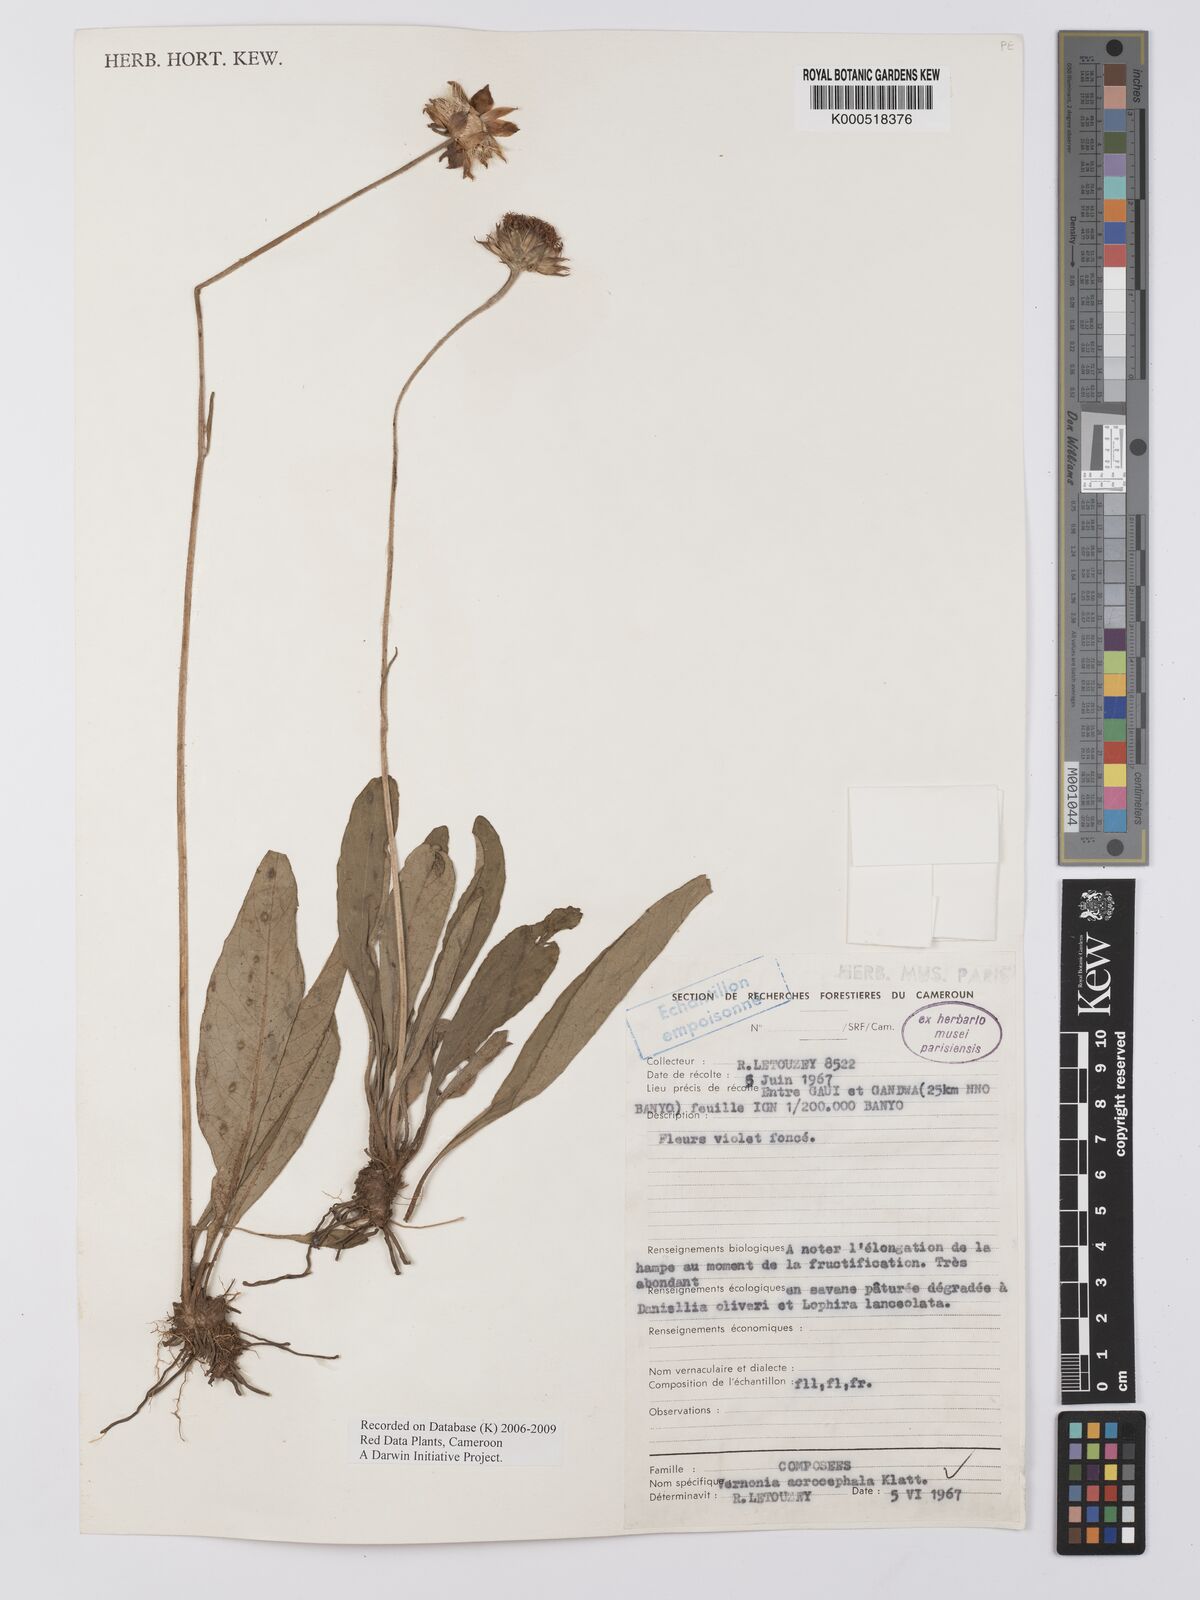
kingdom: Plantae
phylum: Tracheophyta
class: Magnoliopsida
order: Asterales
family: Asteraceae
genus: Vernonella
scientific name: Vernonella acrocephala
